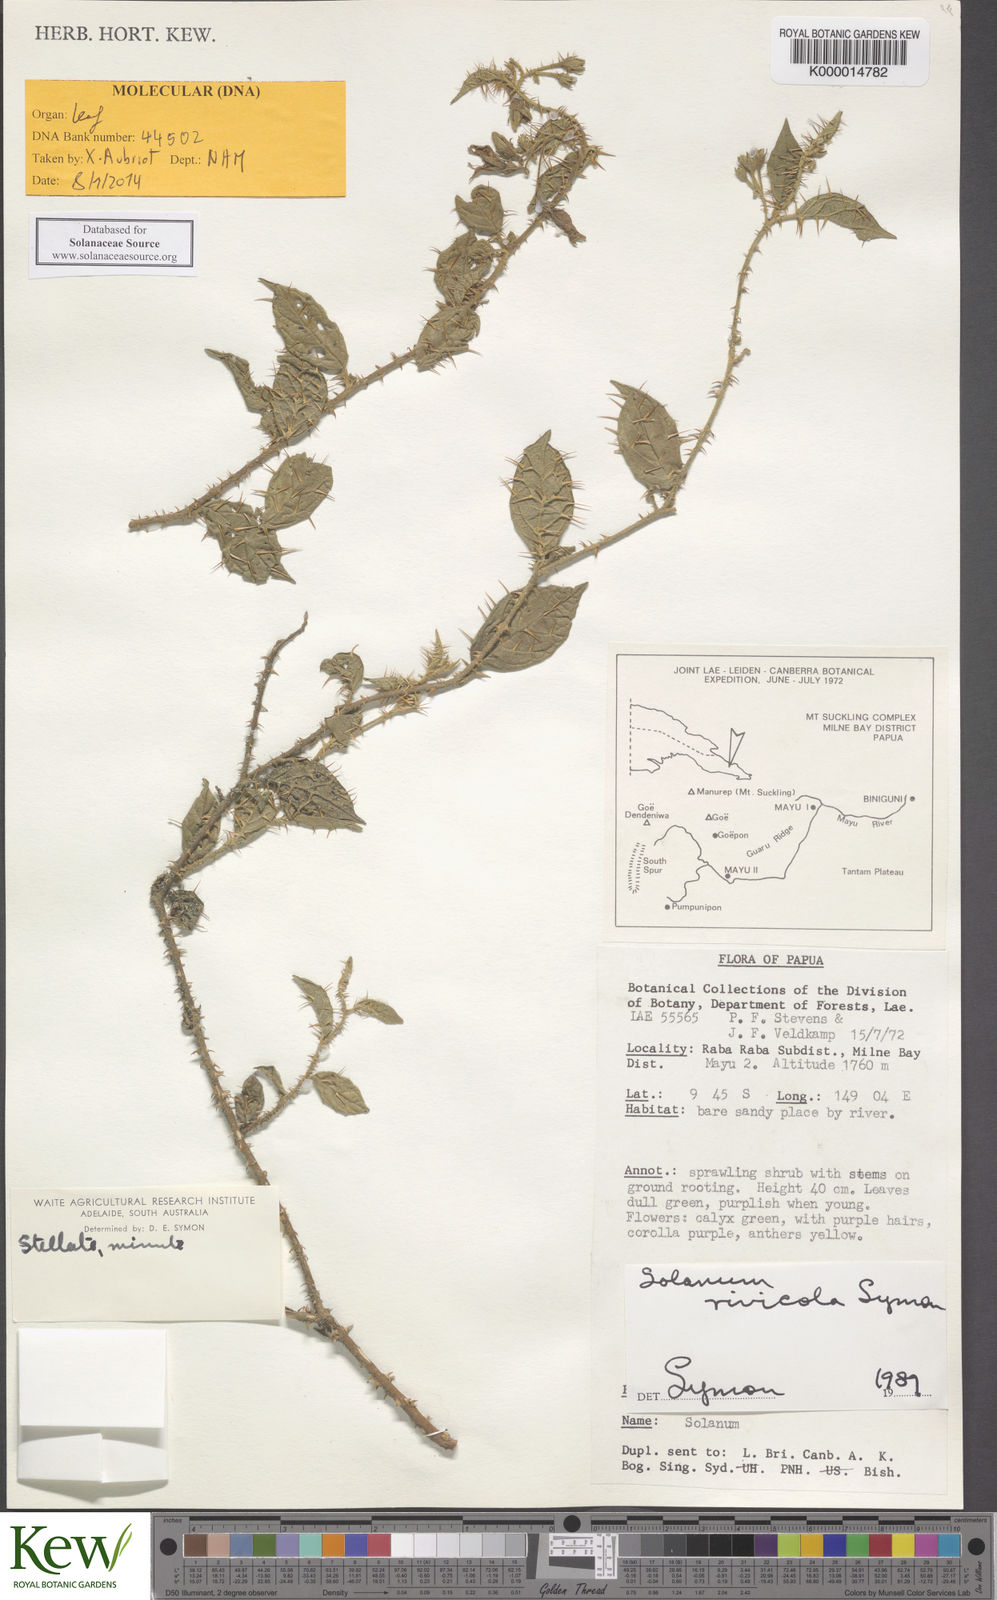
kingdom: Plantae
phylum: Tracheophyta
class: Magnoliopsida
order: Solanales
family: Solanaceae
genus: Solanum
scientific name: Solanum exemptum
